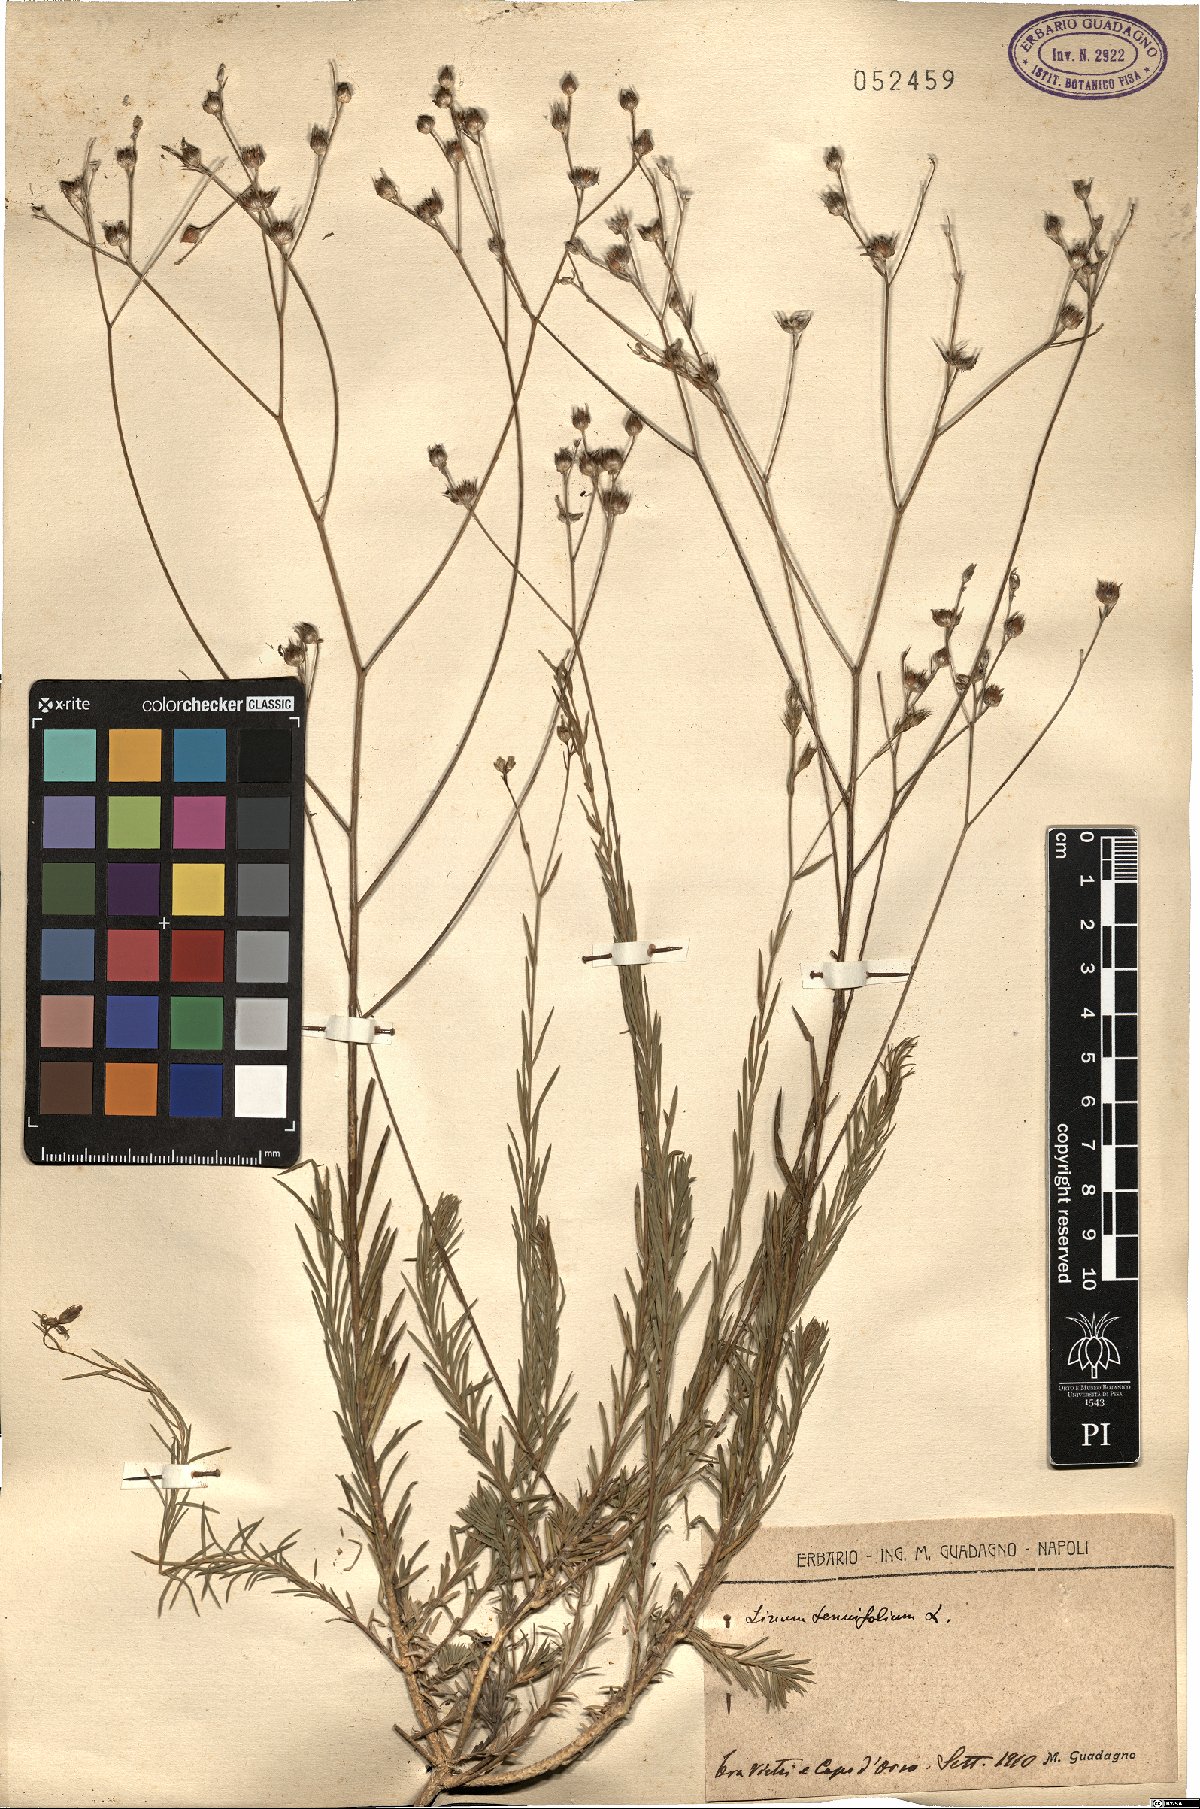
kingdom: Plantae
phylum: Tracheophyta
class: Magnoliopsida
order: Malpighiales
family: Linaceae
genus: Linum
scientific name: Linum tenuifolium
